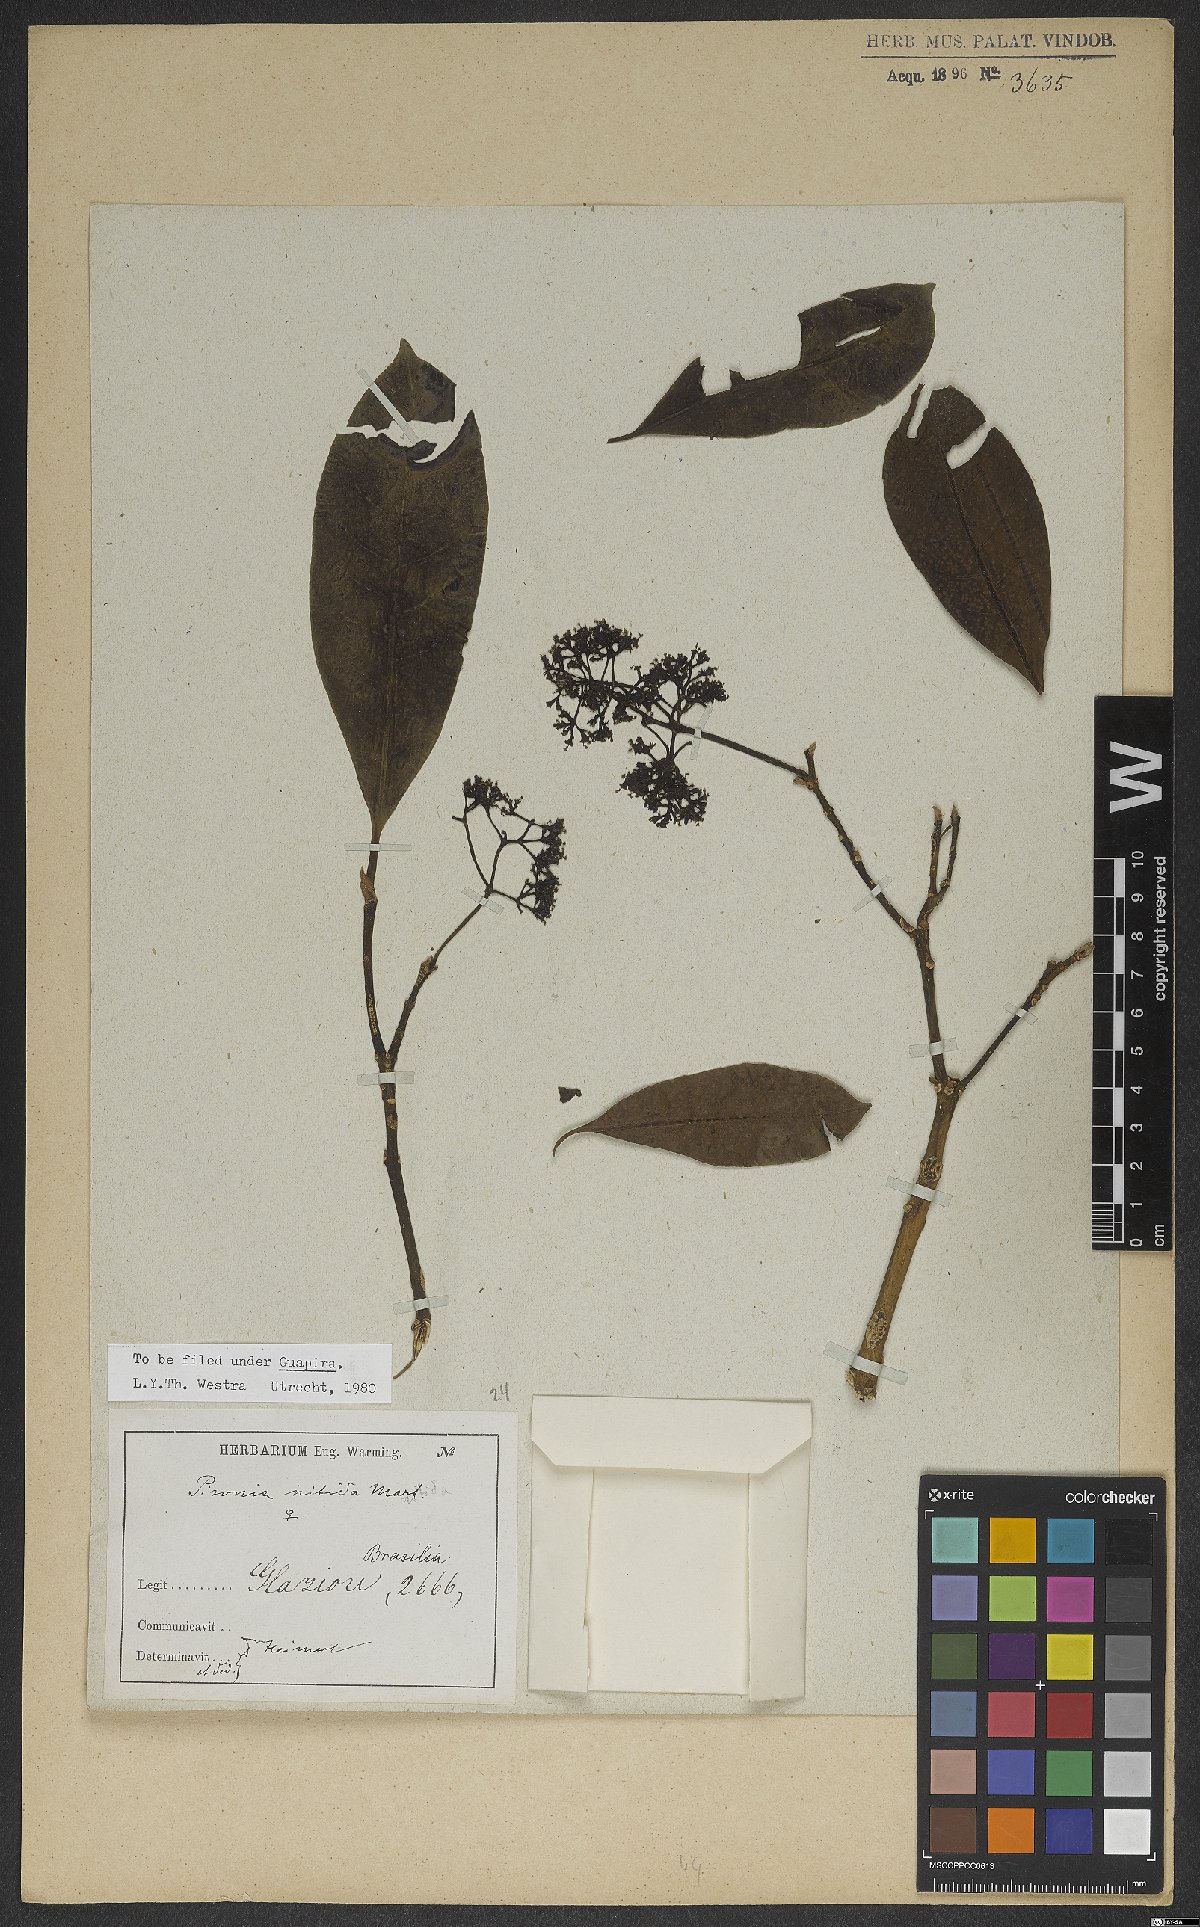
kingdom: Plantae
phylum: Tracheophyta
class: Magnoliopsida
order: Caryophyllales
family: Nyctaginaceae
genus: Guapira
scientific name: Guapira nitida
